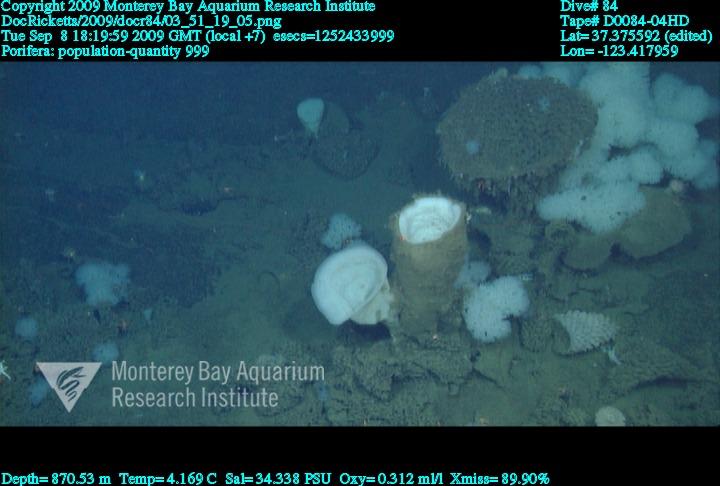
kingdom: Animalia
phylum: Porifera
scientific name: Porifera
